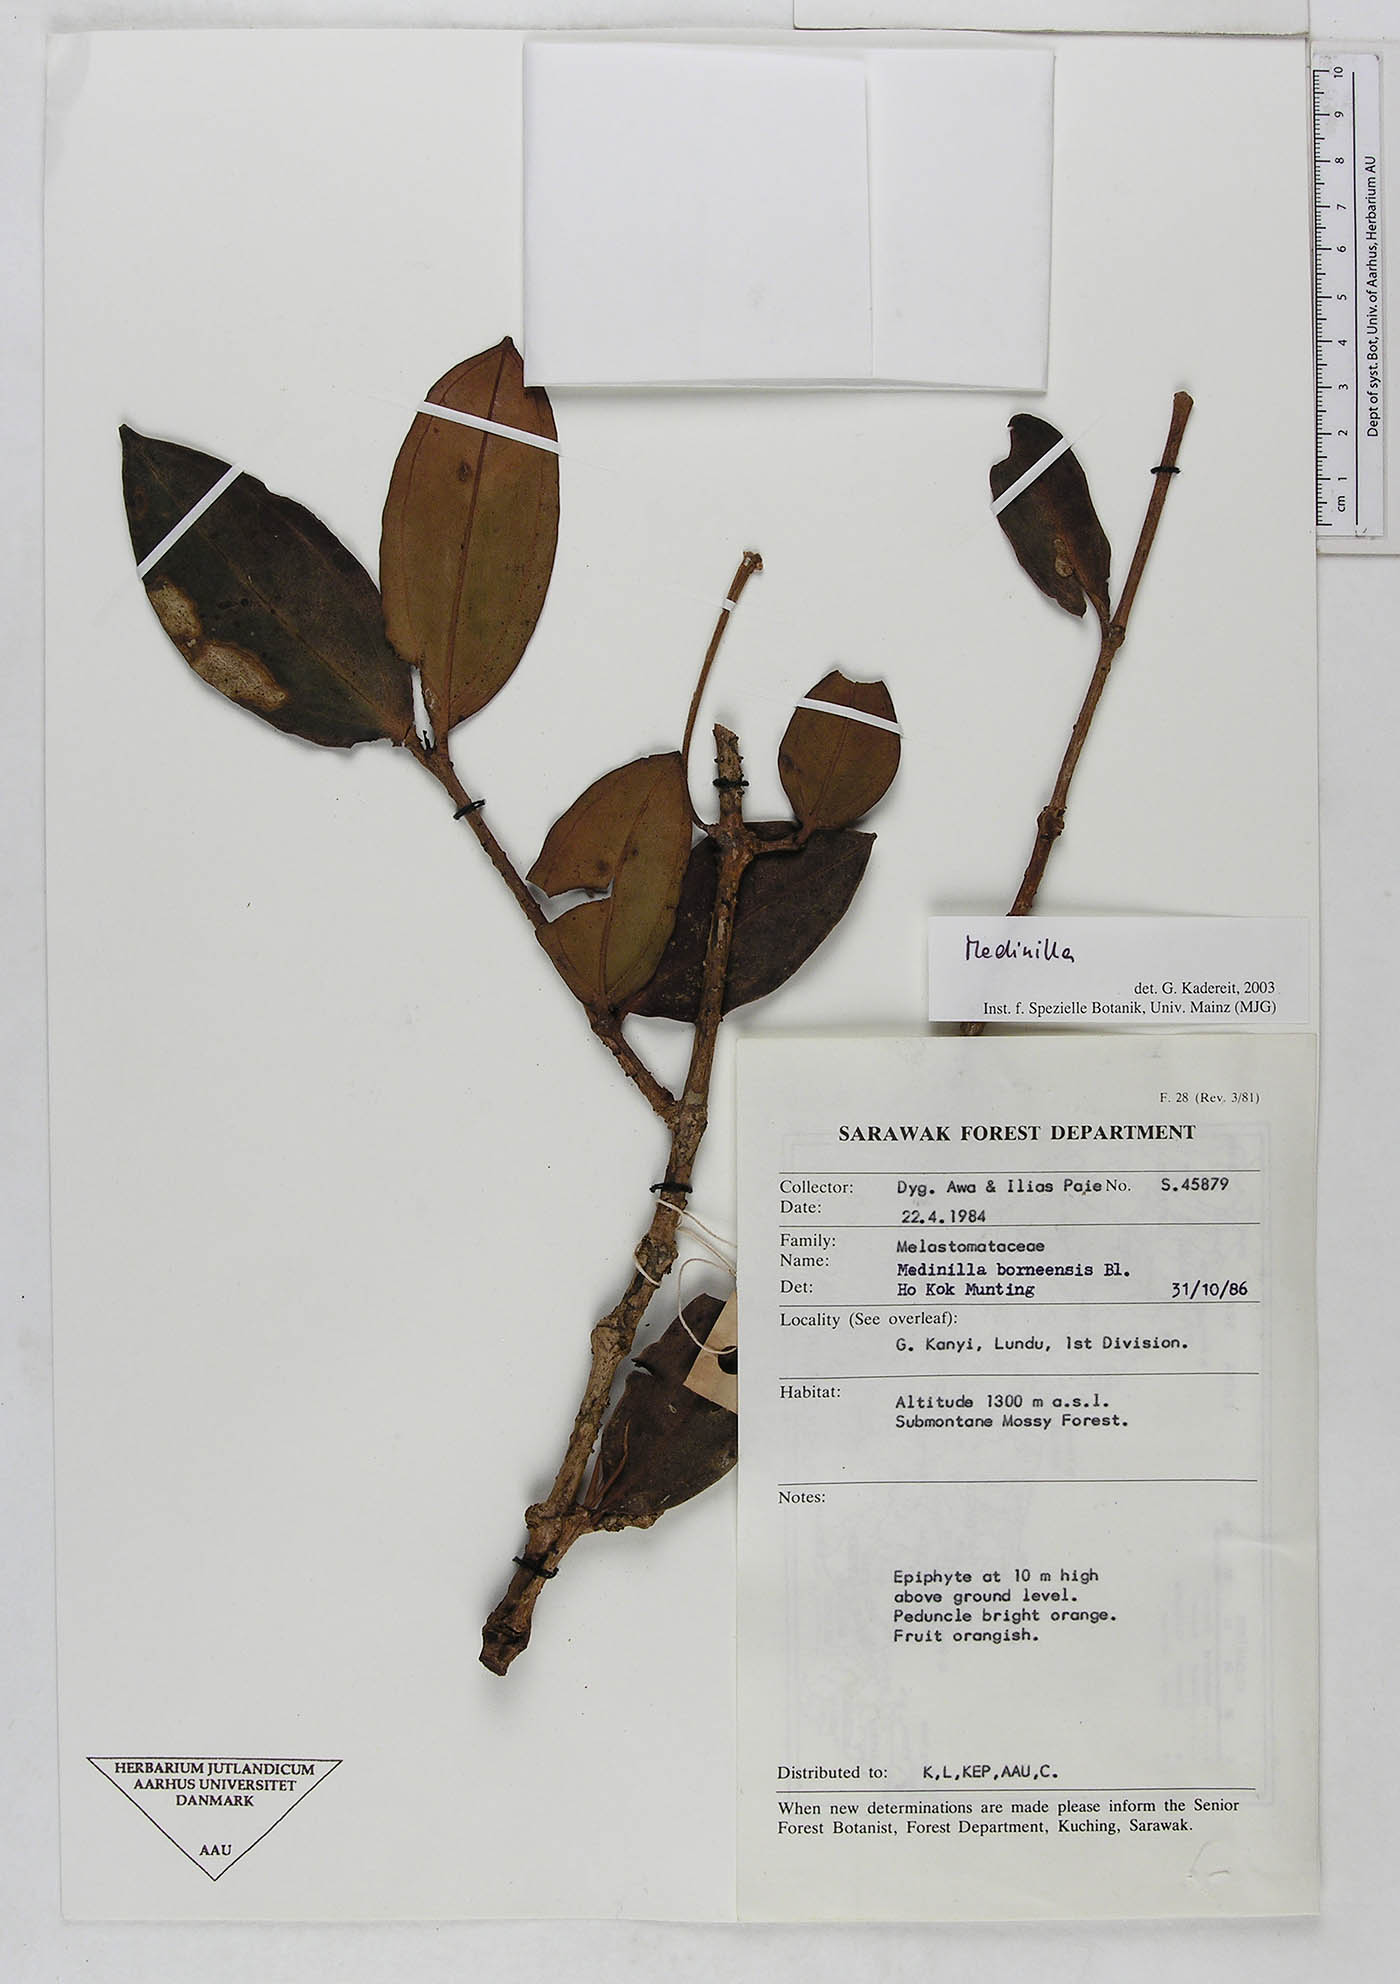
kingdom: Plantae
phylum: Tracheophyta
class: Magnoliopsida
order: Myrtales
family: Melastomataceae
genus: Medinilla
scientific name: Medinilla
